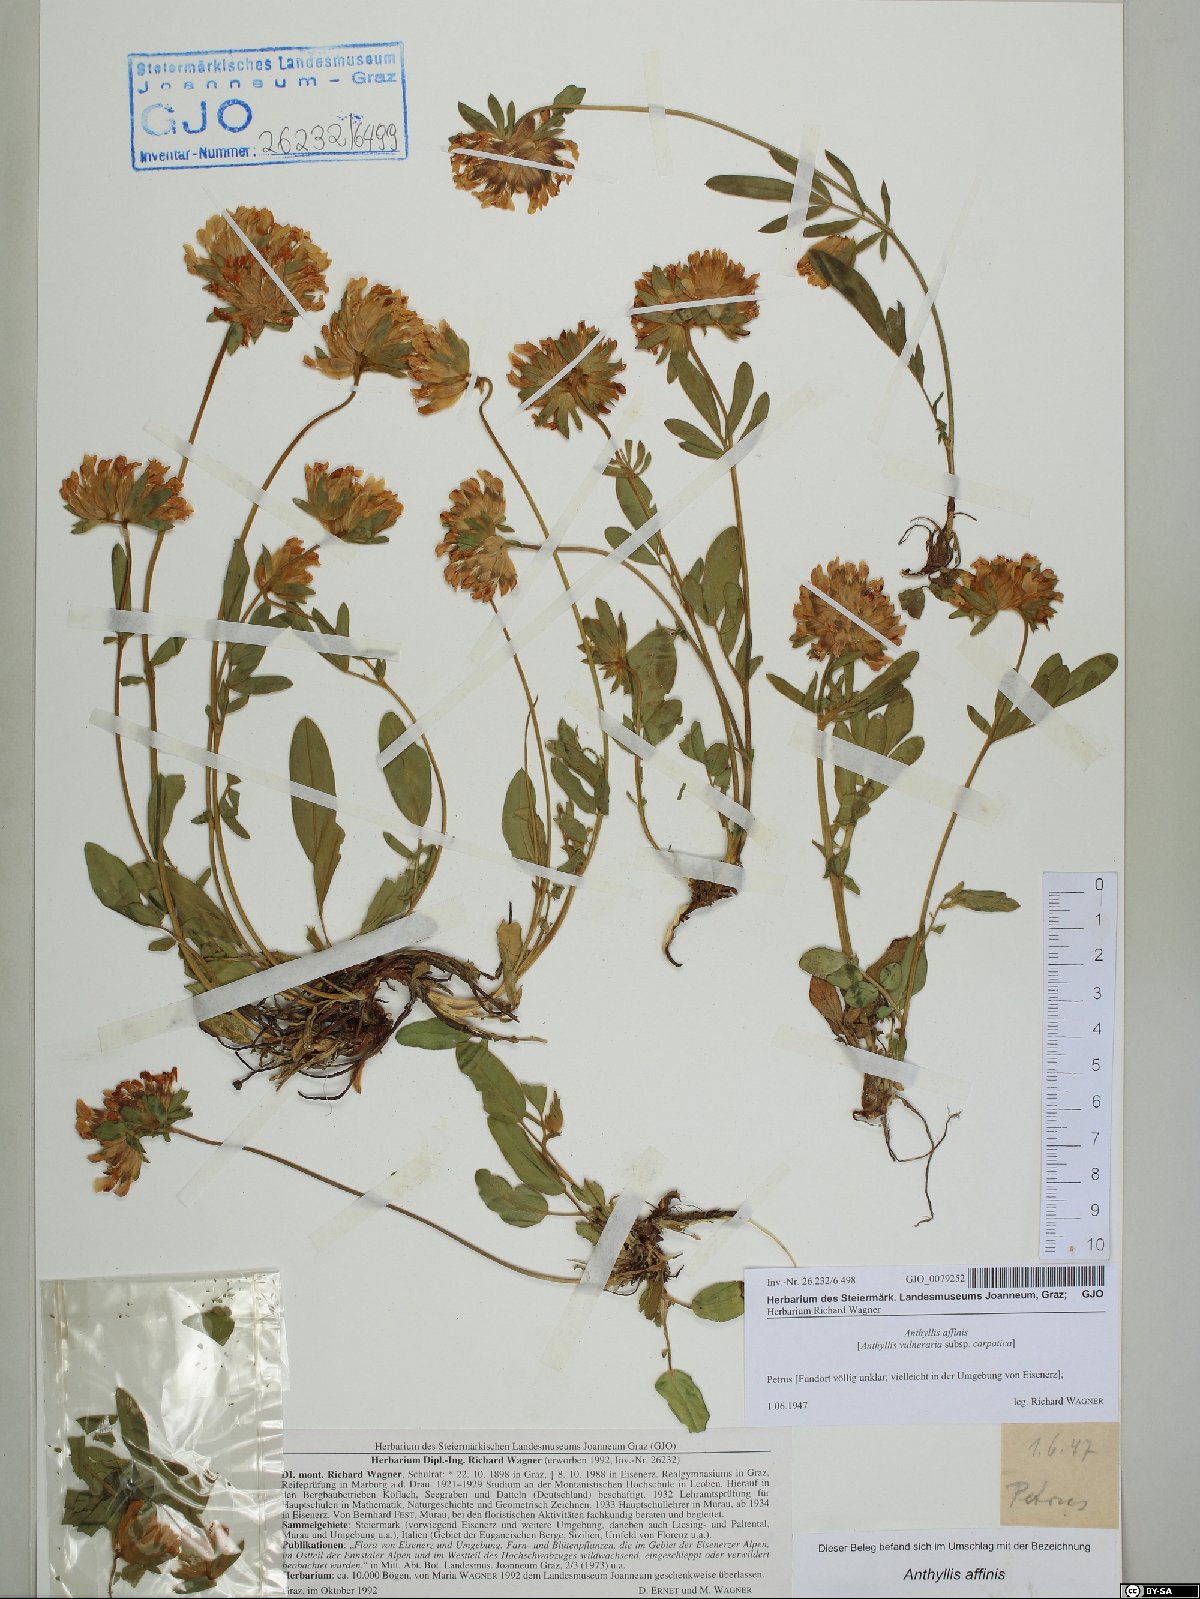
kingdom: Plantae
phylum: Tracheophyta
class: Magnoliopsida
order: Fabales
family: Fabaceae
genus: Anthyllis
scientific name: Anthyllis vulneraria
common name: Kidney vetch
